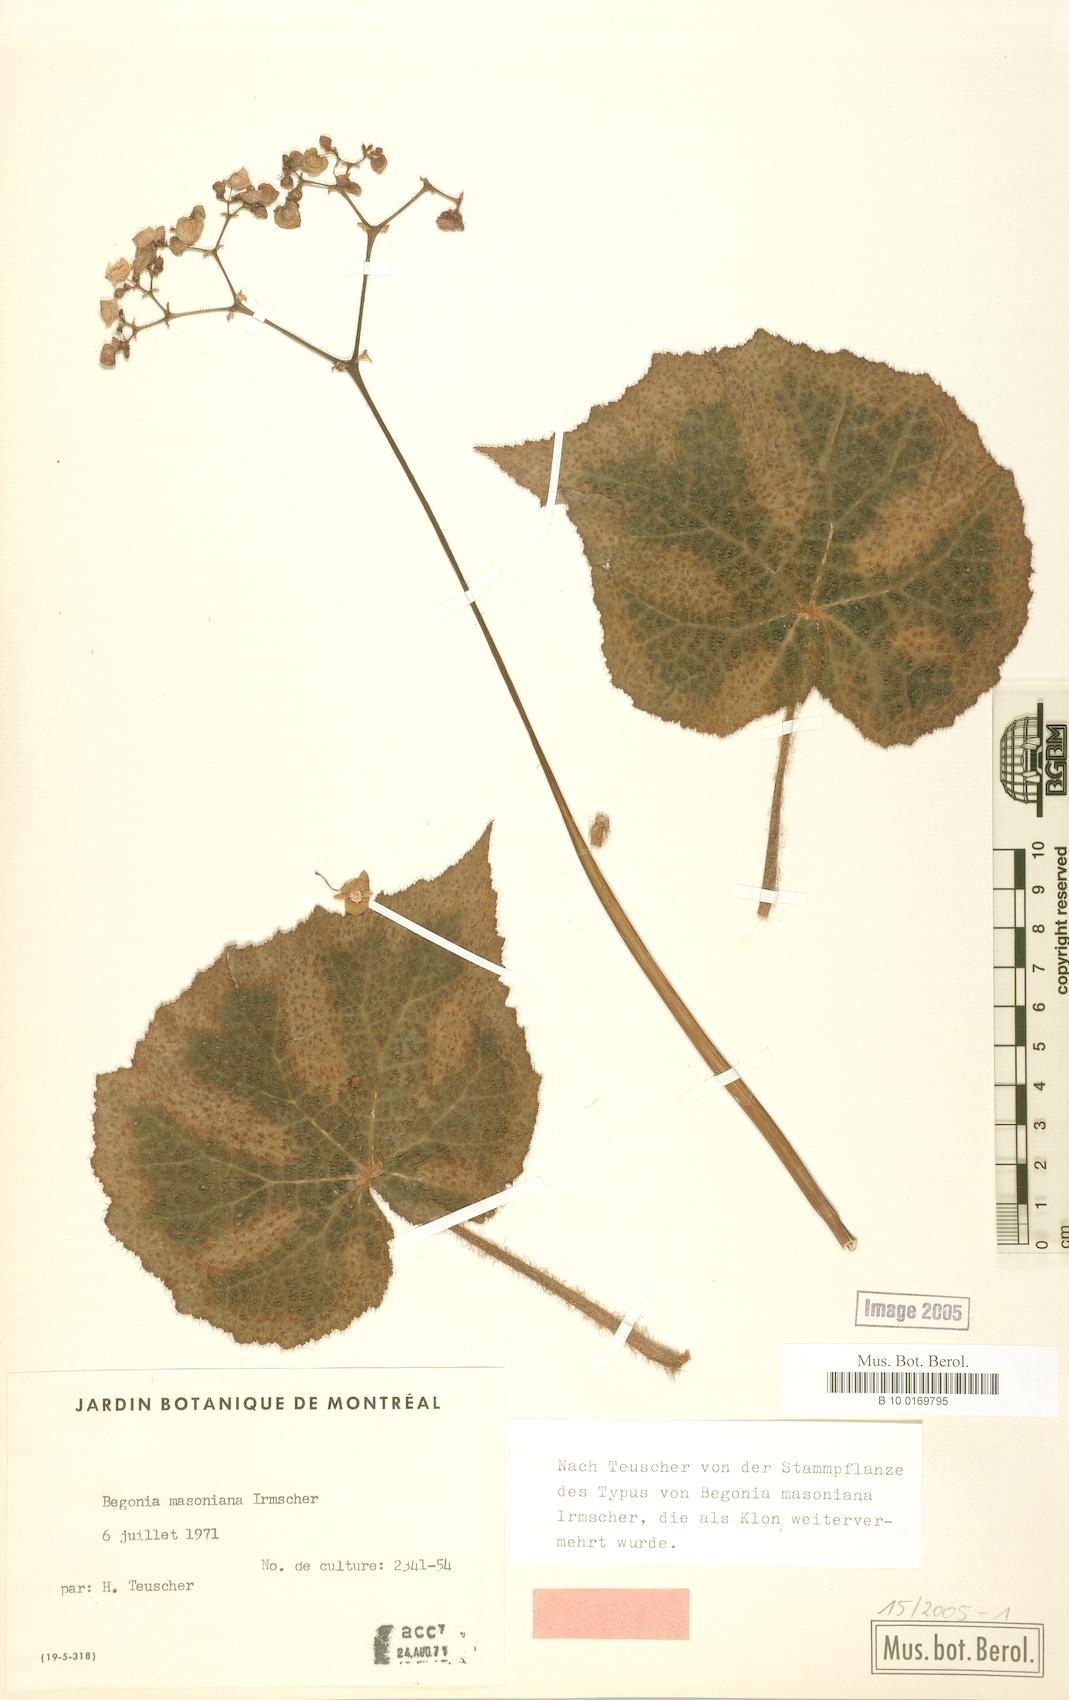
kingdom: Plantae
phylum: Tracheophyta
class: Magnoliopsida
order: Cucurbitales
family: Begoniaceae
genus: Begonia
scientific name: Begonia masoniana
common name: Iron-cross begonia
